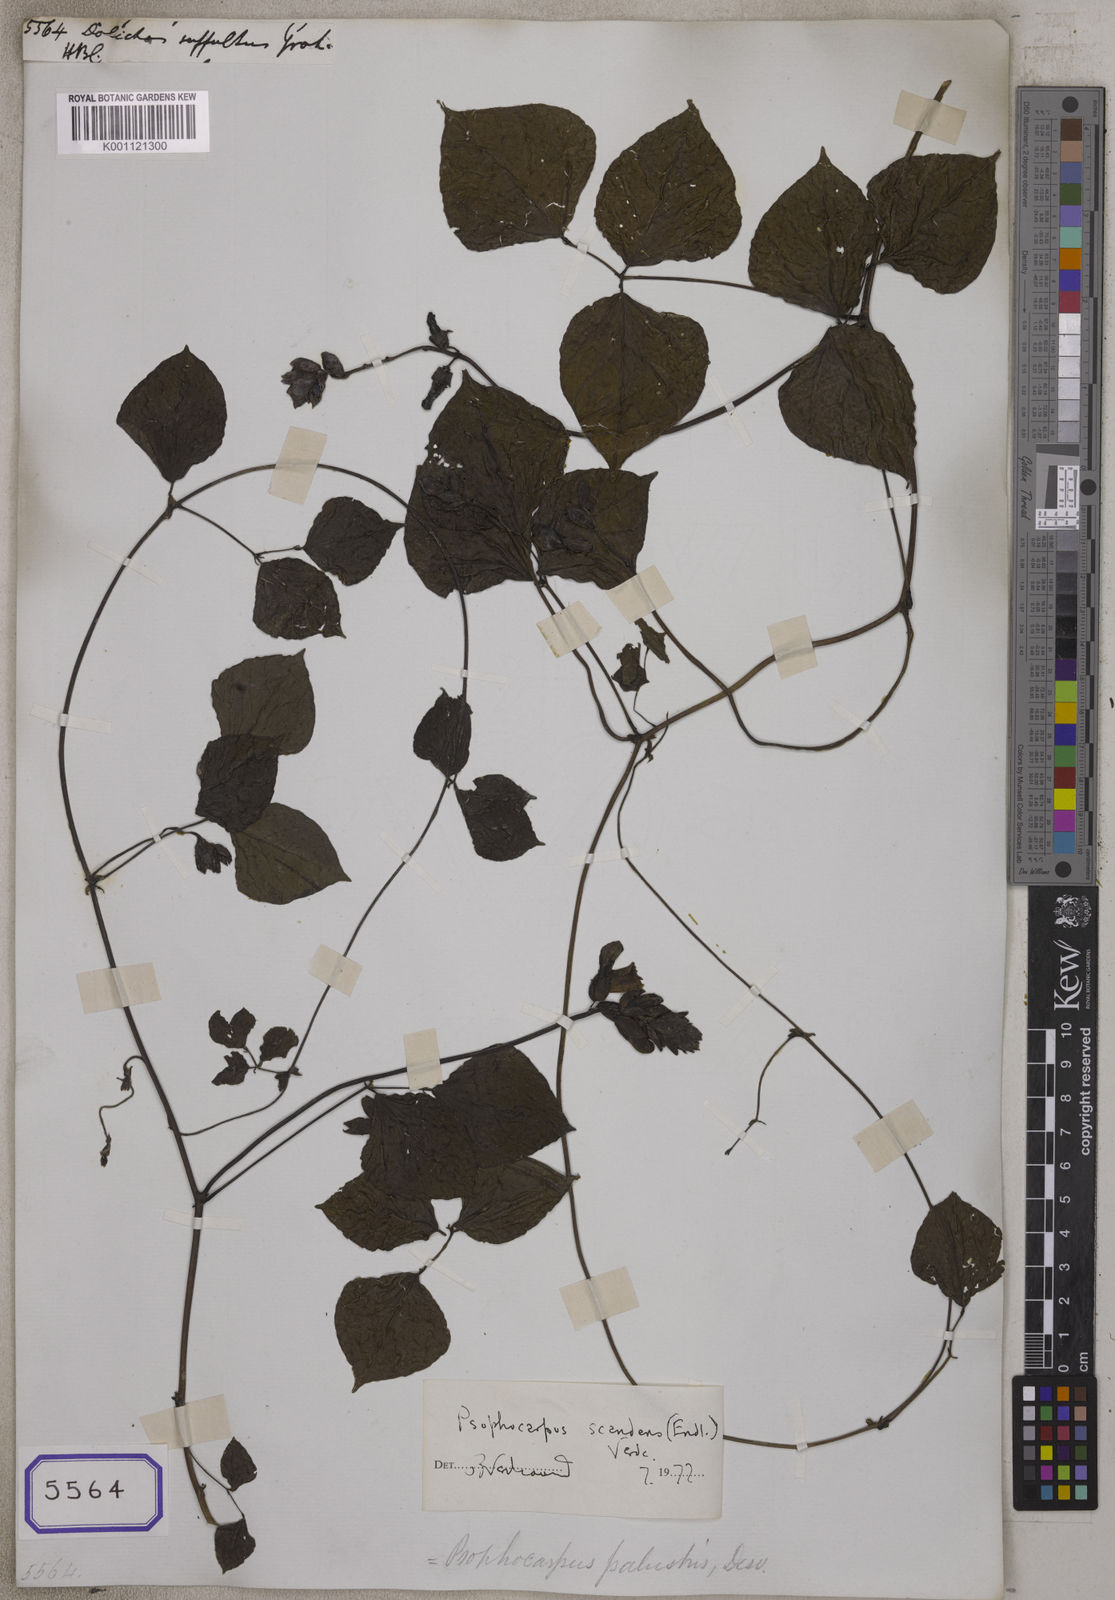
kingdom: Plantae
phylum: Tracheophyta
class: Magnoliopsida
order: Fabales
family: Fabaceae
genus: Psophocarpus
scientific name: Psophocarpus scandens
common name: Tropical african winged-bean
